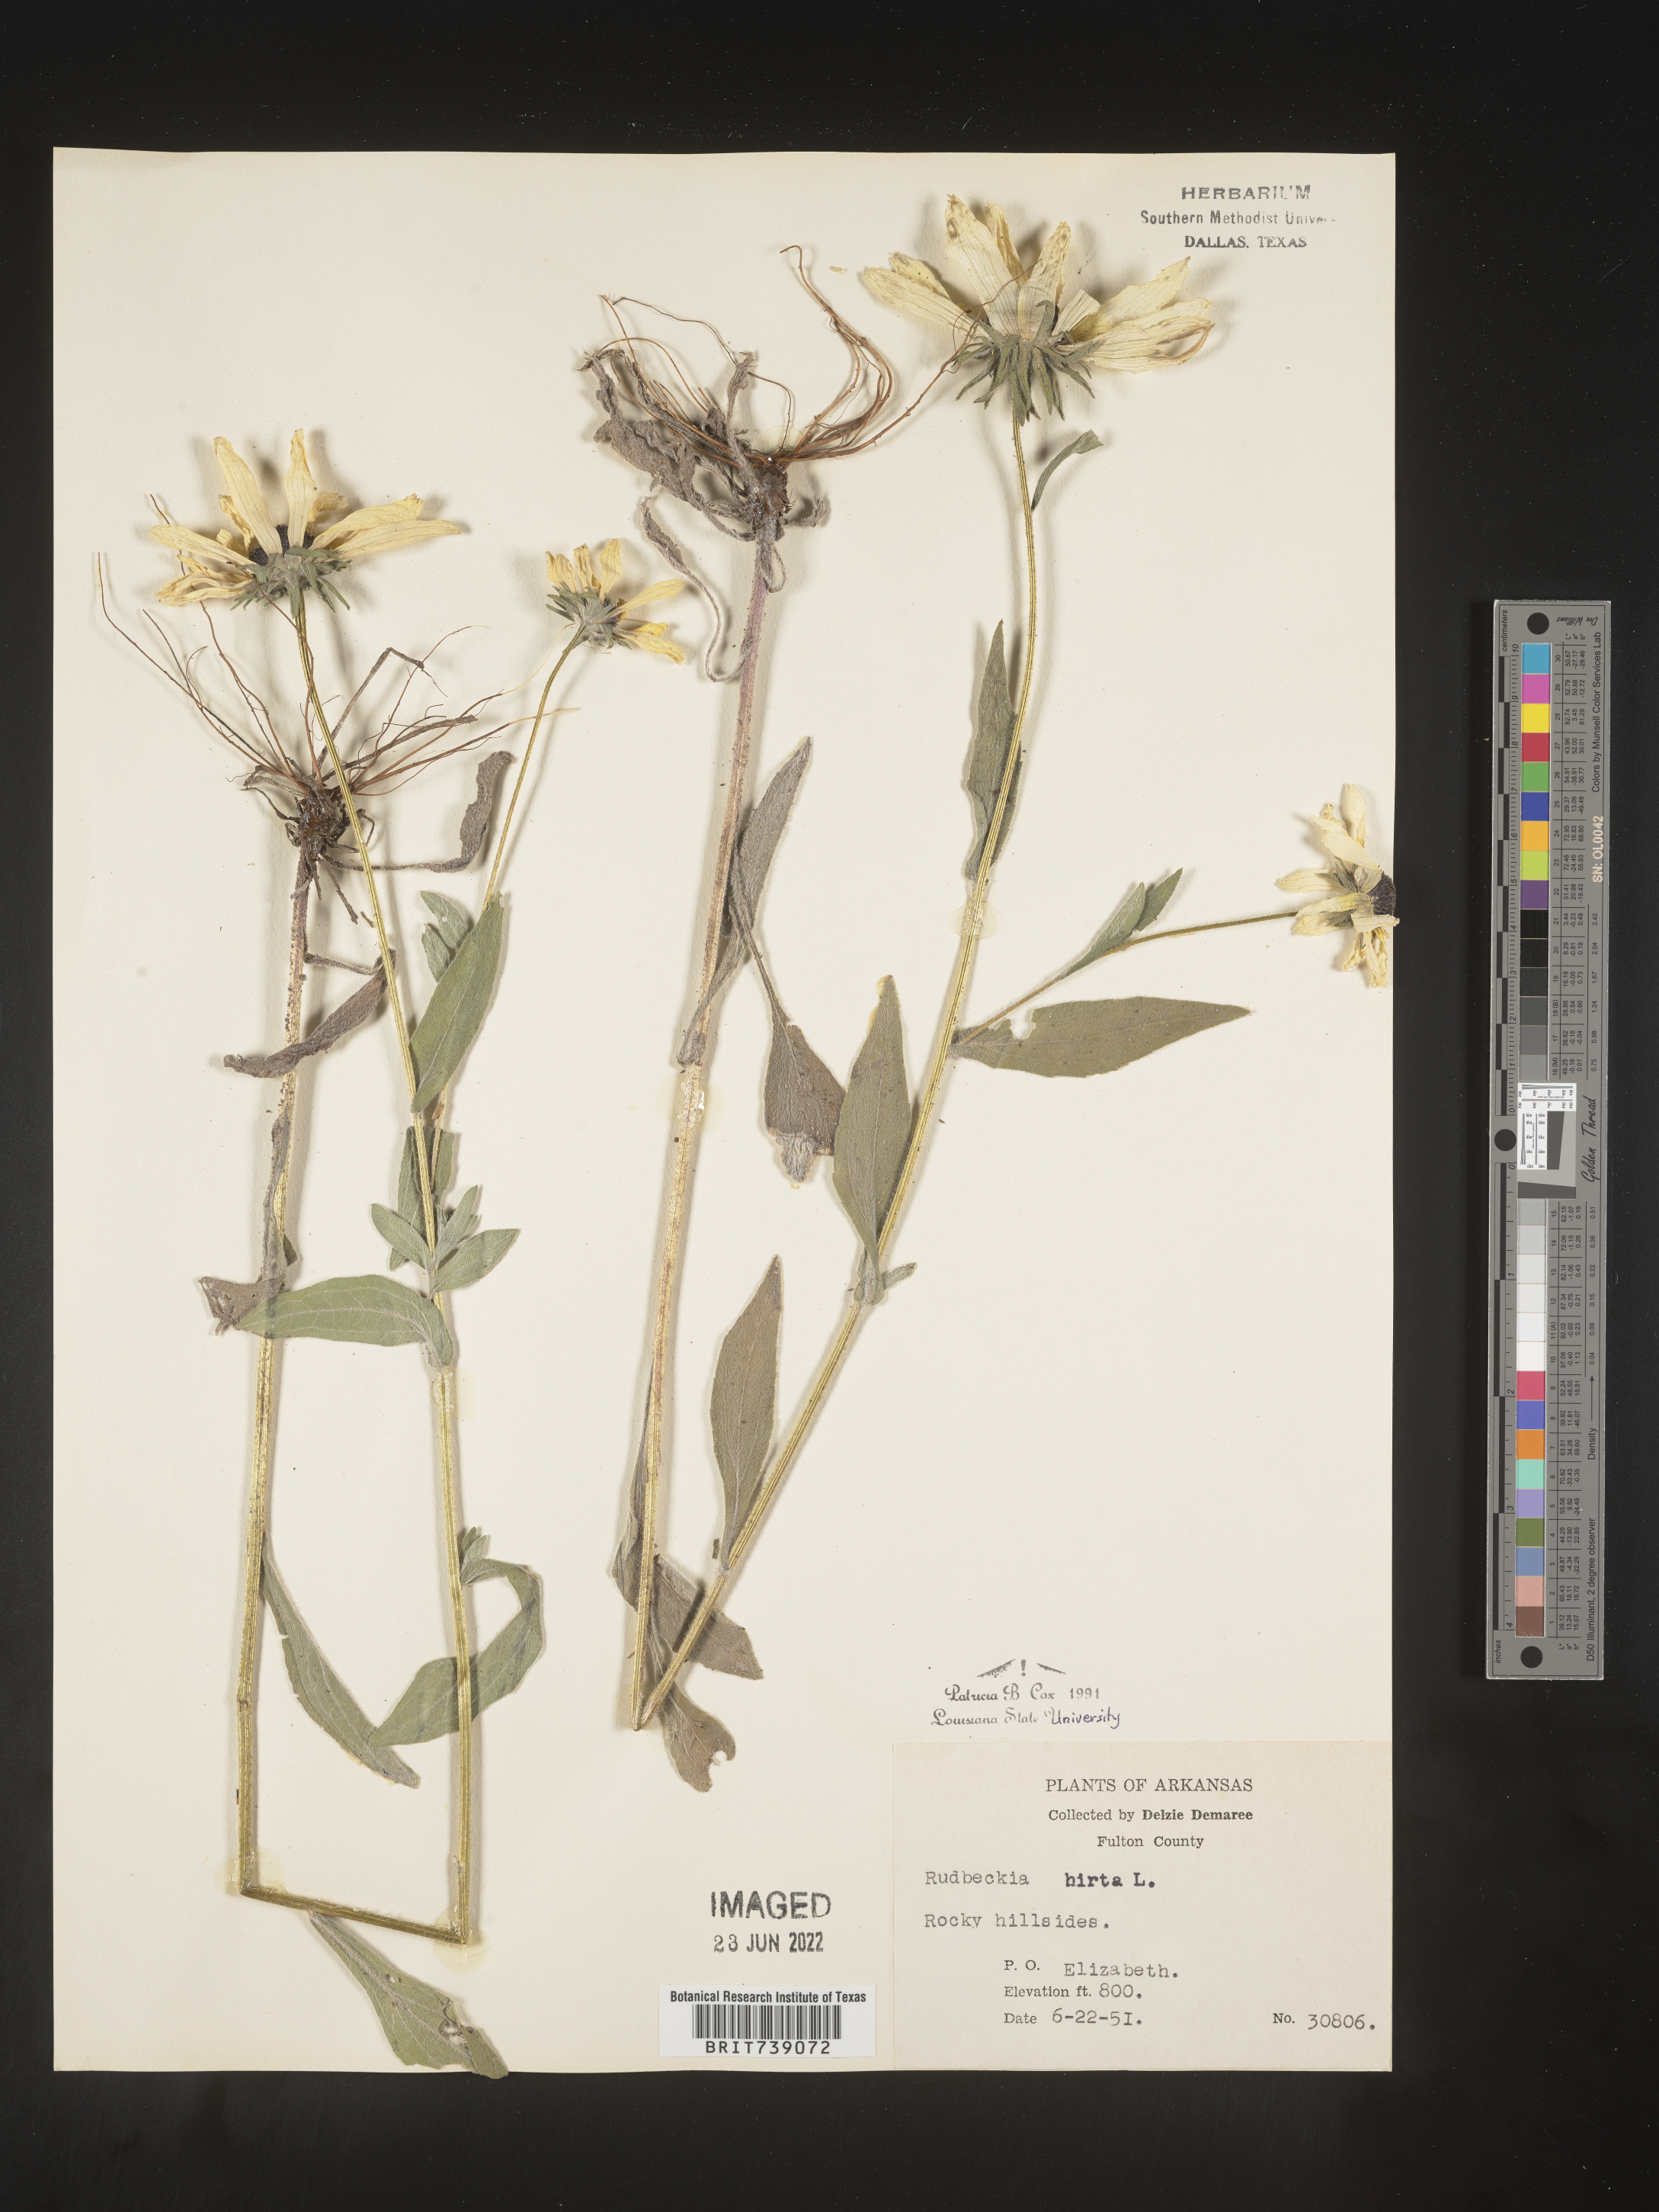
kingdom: Plantae
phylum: Tracheophyta
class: Magnoliopsida
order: Asterales
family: Asteraceae
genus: Rudbeckia
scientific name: Rudbeckia hirta
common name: Black-eyed-susan
